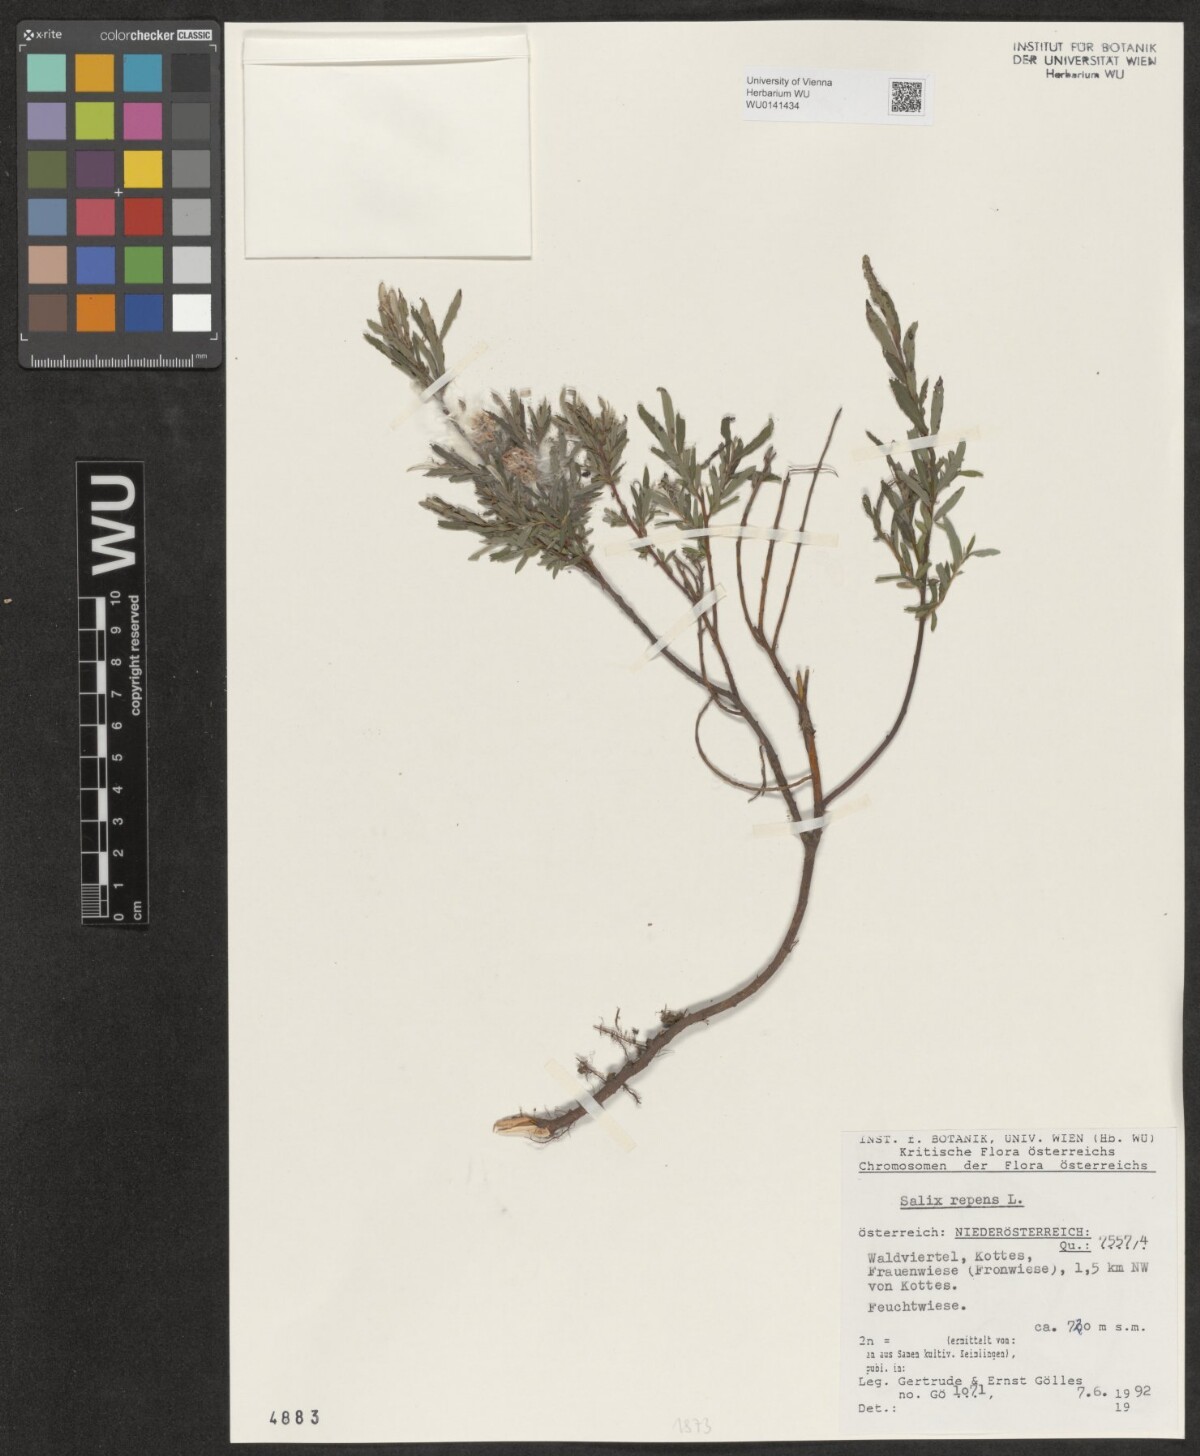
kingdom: Plantae
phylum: Tracheophyta
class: Magnoliopsida
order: Malpighiales
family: Salicaceae
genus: Salix
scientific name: Salix repens
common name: Creeping willow
